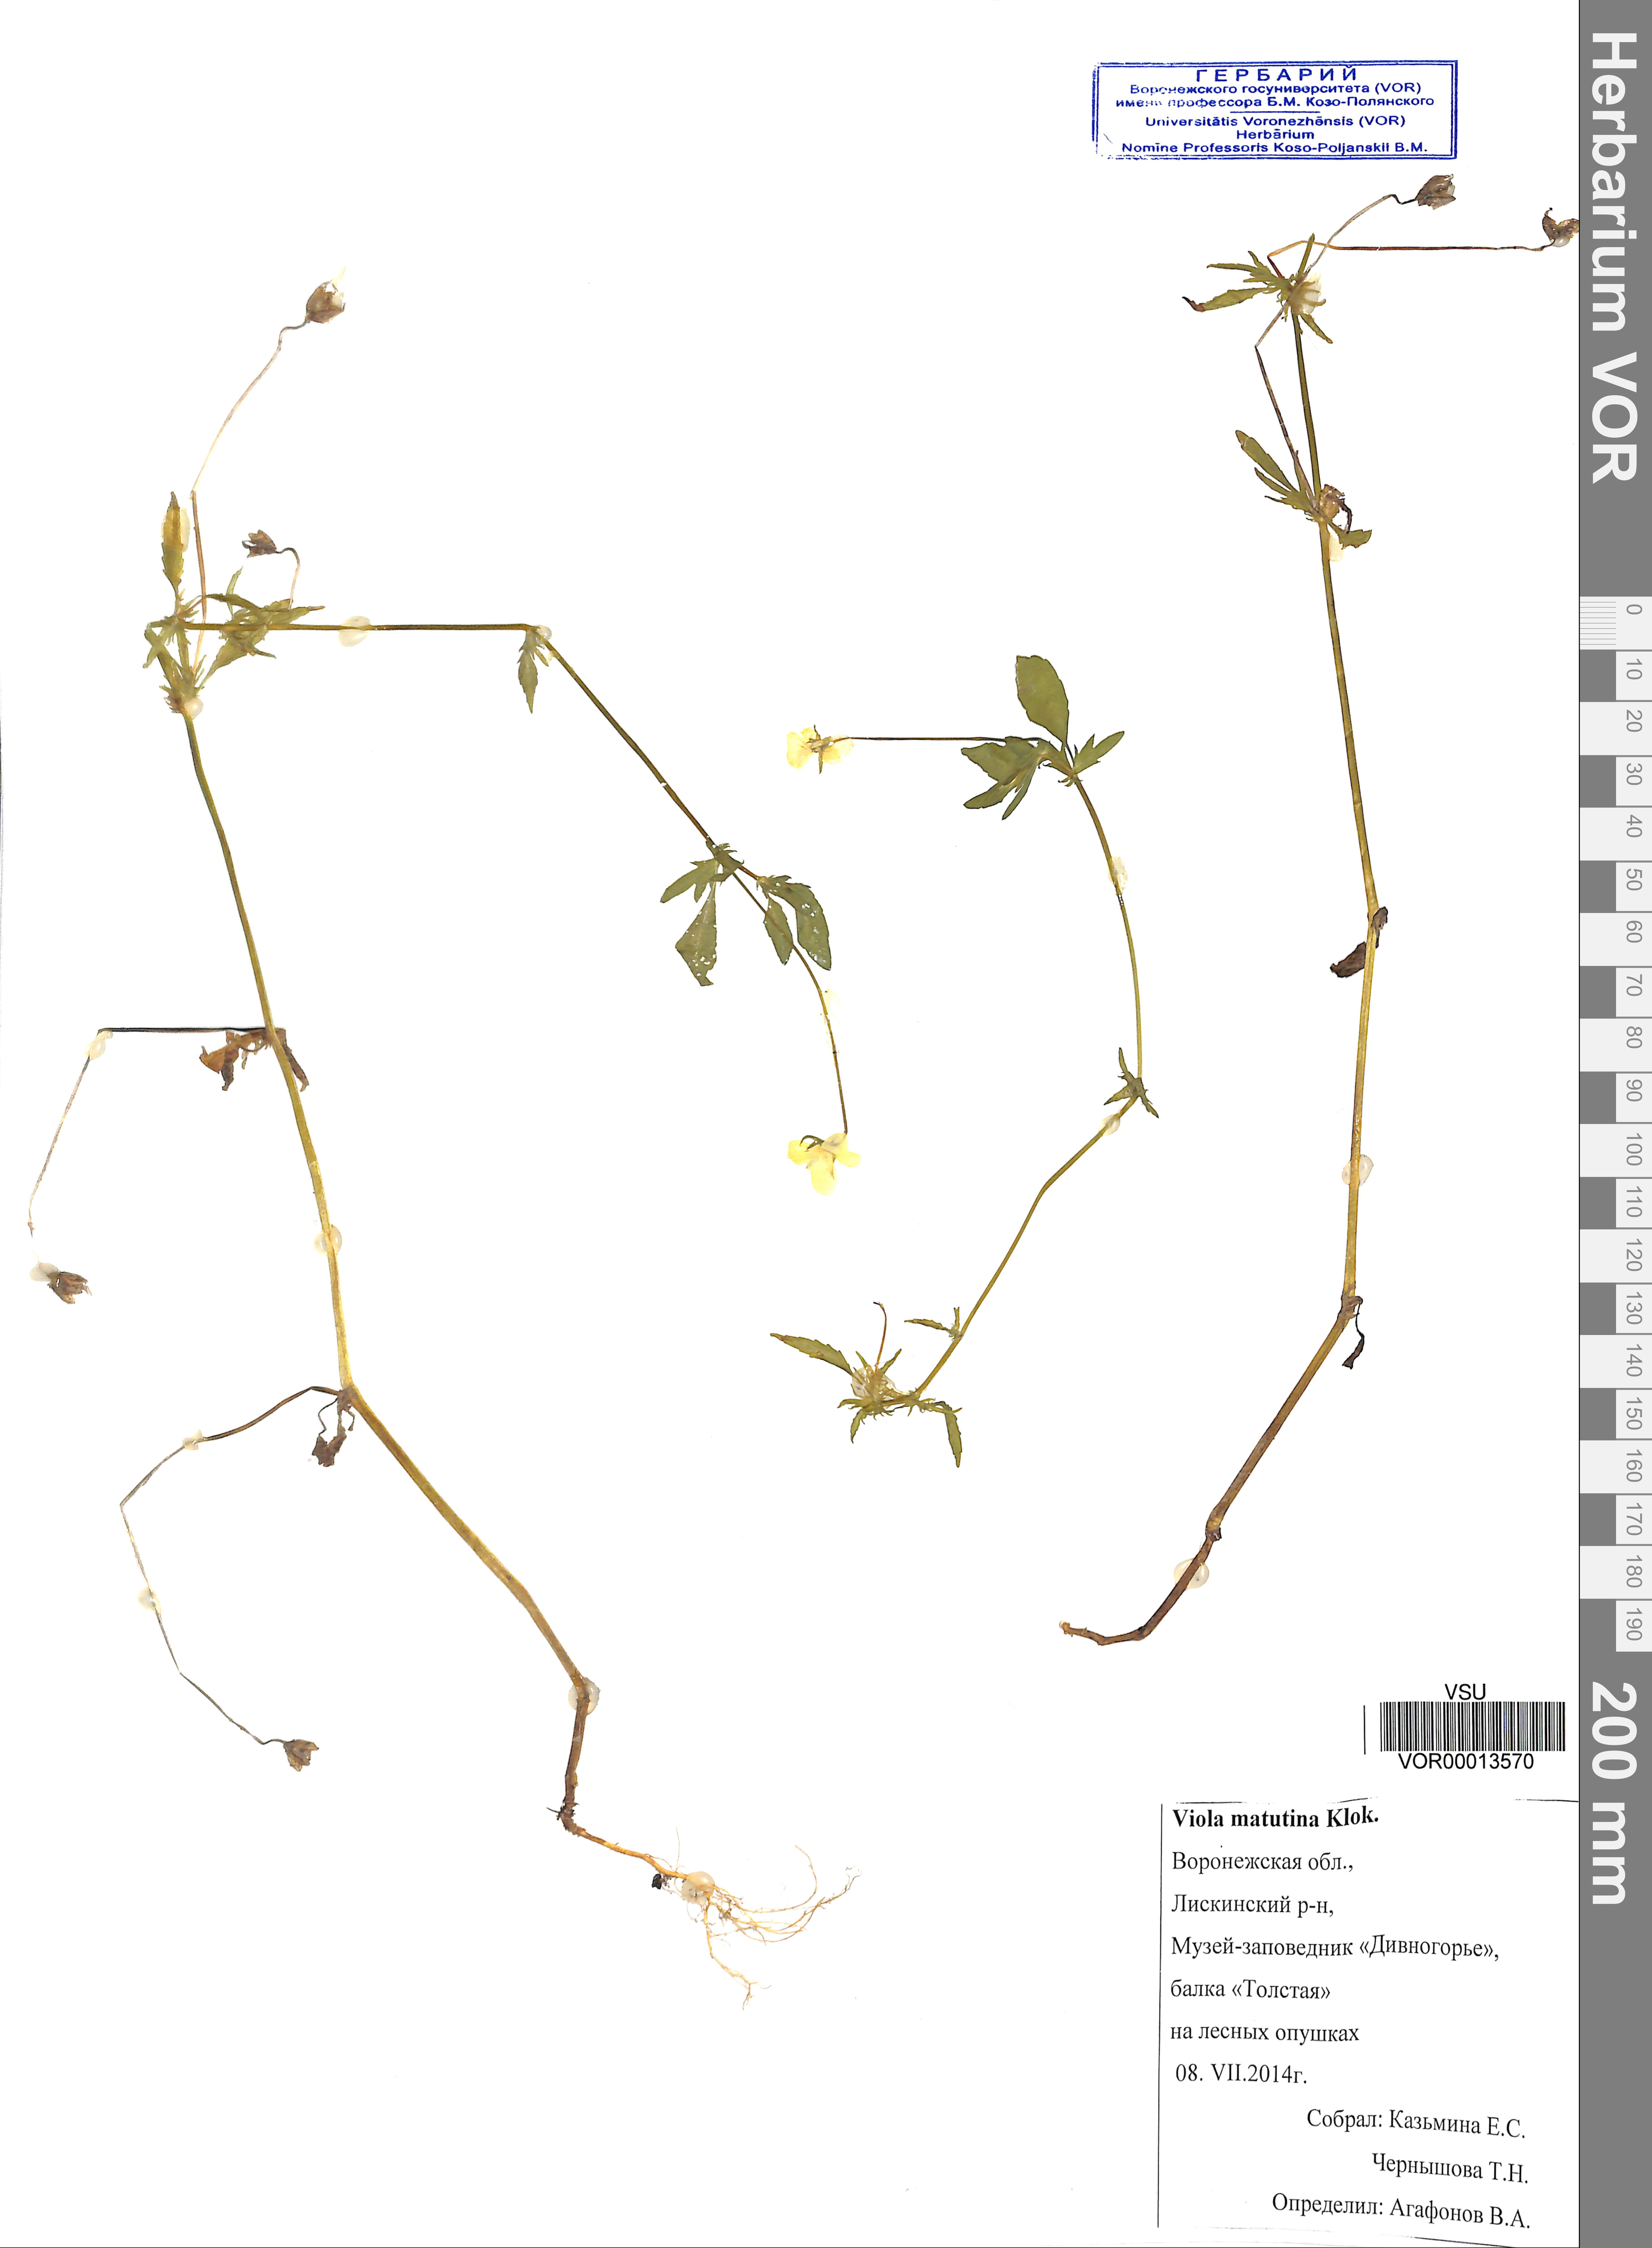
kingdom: Plantae
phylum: Tracheophyta
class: Magnoliopsida
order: Malpighiales
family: Violaceae
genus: Viola
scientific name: Viola tricolor
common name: Pansy
